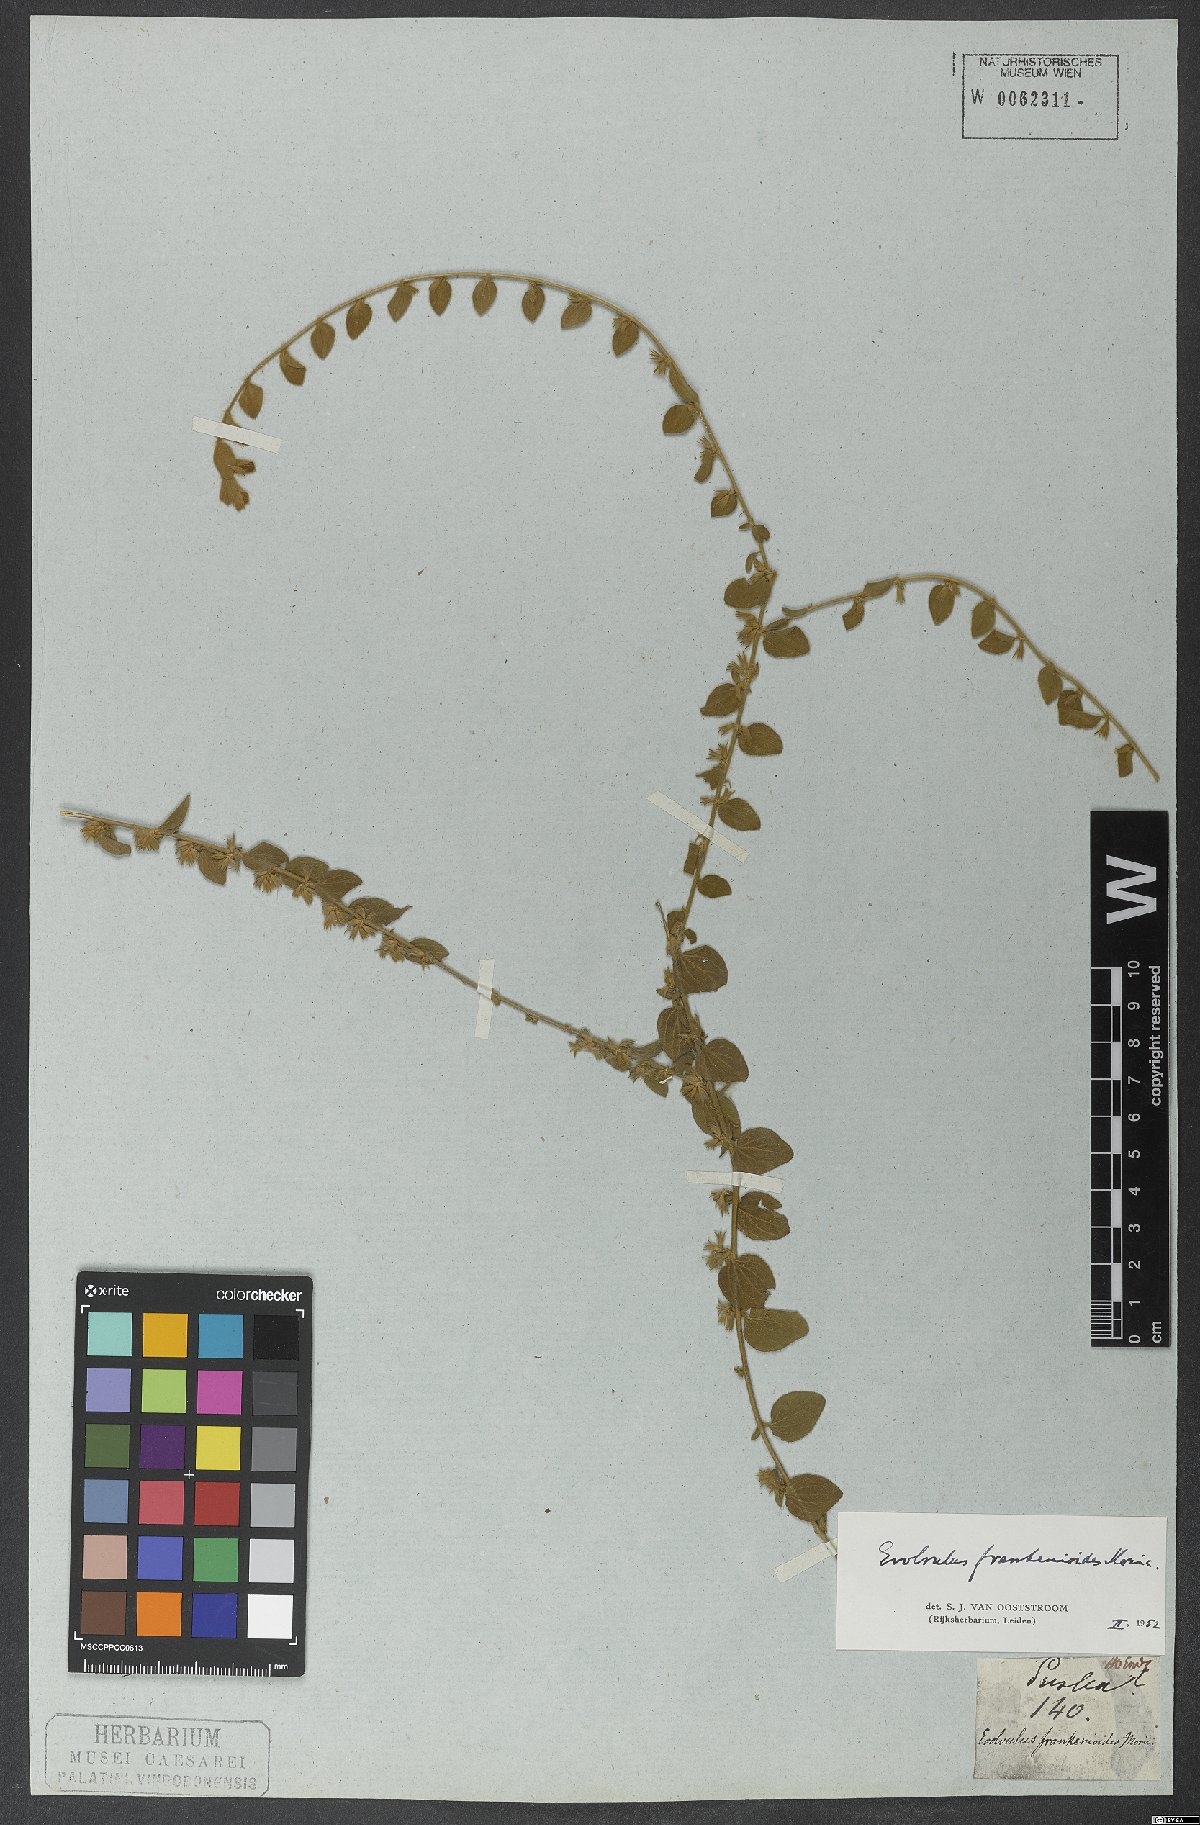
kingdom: Plantae
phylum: Tracheophyta
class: Magnoliopsida
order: Solanales
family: Convolvulaceae
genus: Evolvulus
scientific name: Evolvulus frankenioides
